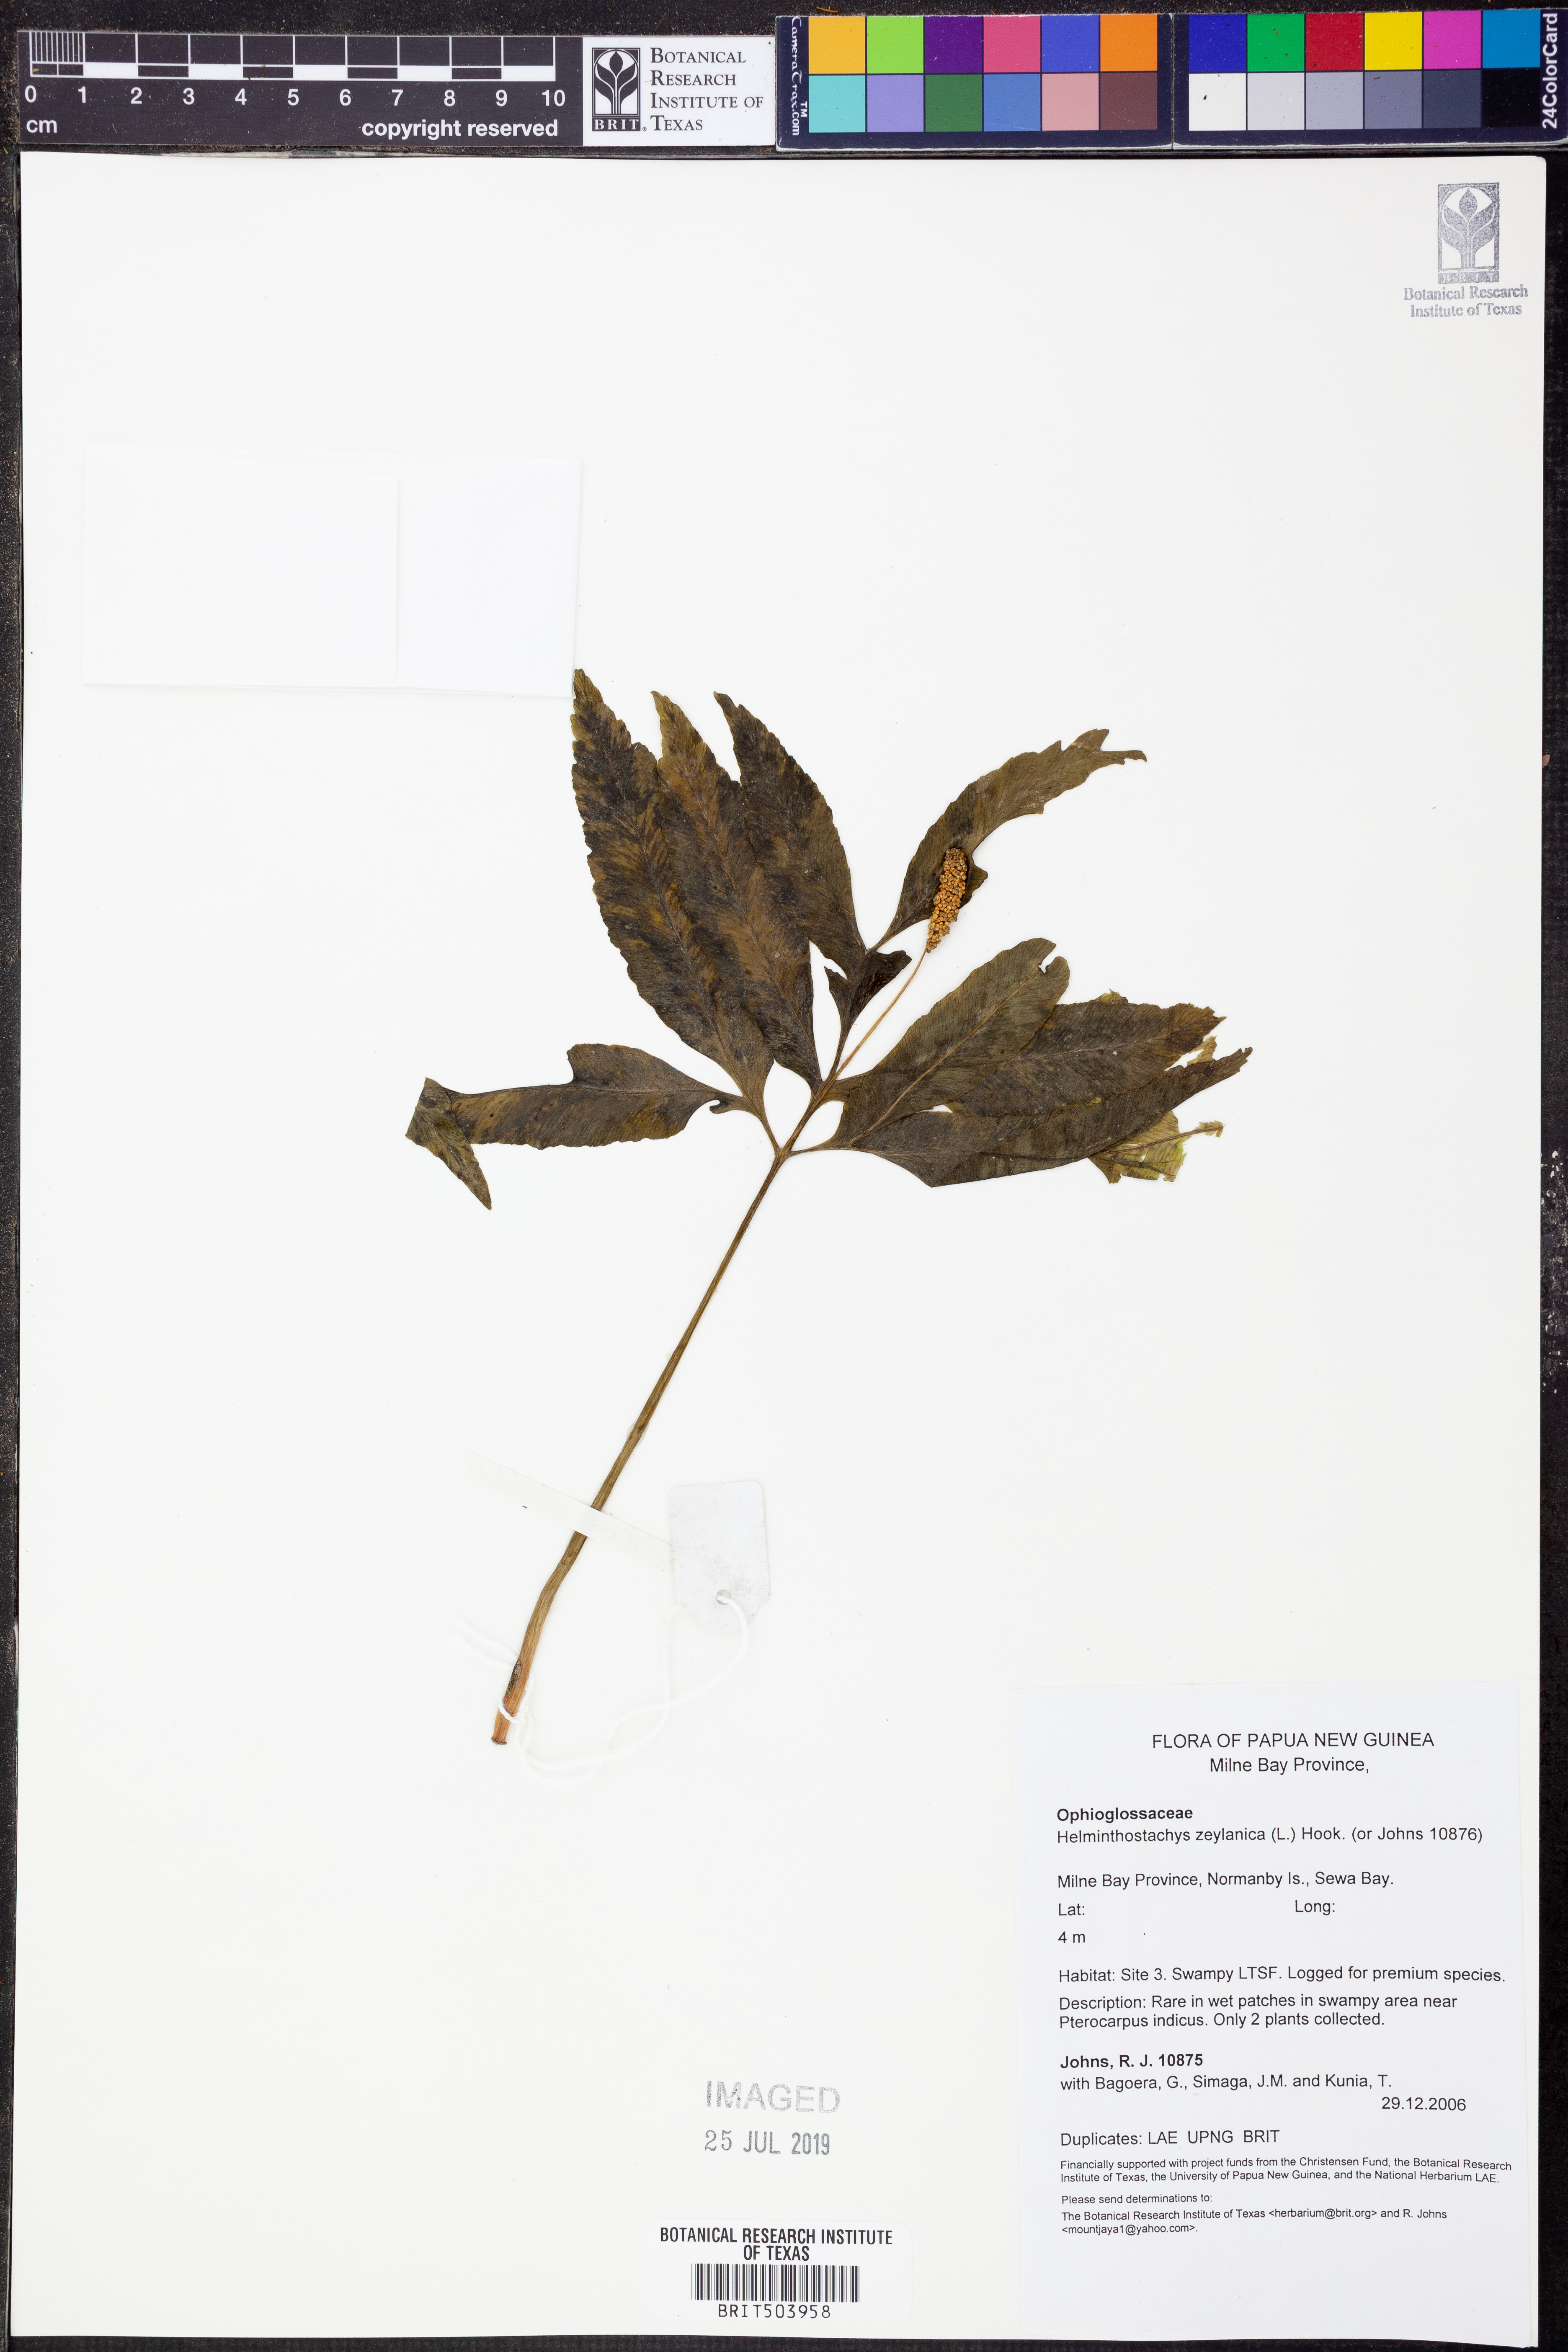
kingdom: Plantae
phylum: Tracheophyta
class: Polypodiopsida
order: Ophioglossales
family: Ophioglossaceae
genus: Helminthostachys
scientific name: Helminthostachys zeylanica
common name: Flowering fern
